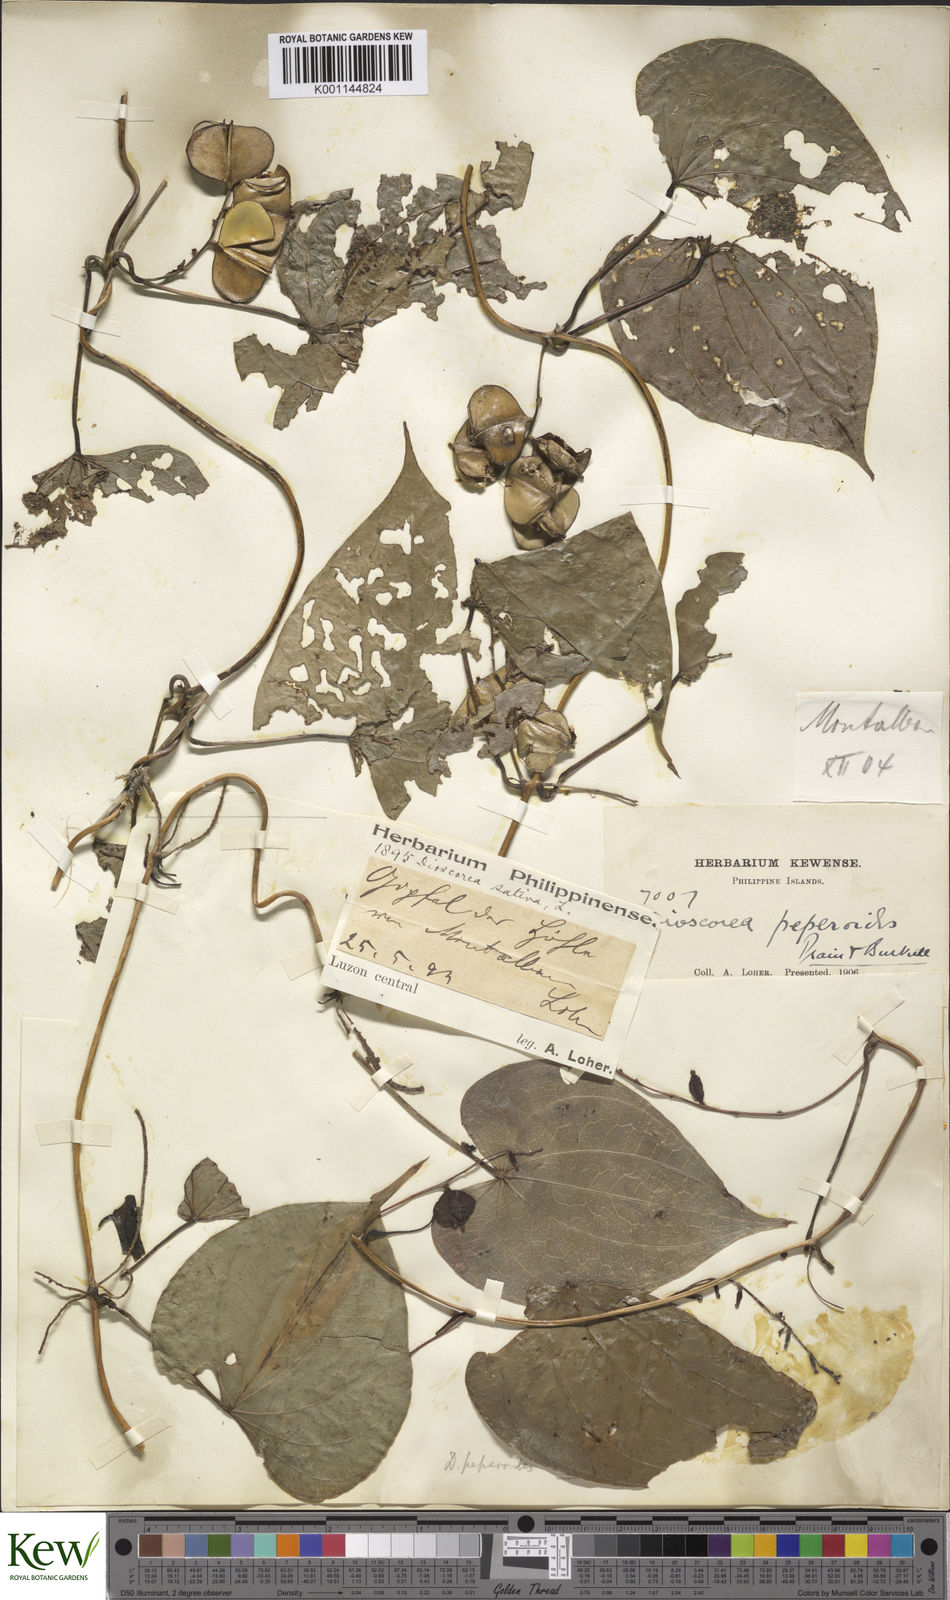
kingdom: Plantae
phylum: Tracheophyta
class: Liliopsida
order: Dioscoreales
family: Dioscoreaceae
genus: Dioscorea
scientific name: Dioscorea peperoides
